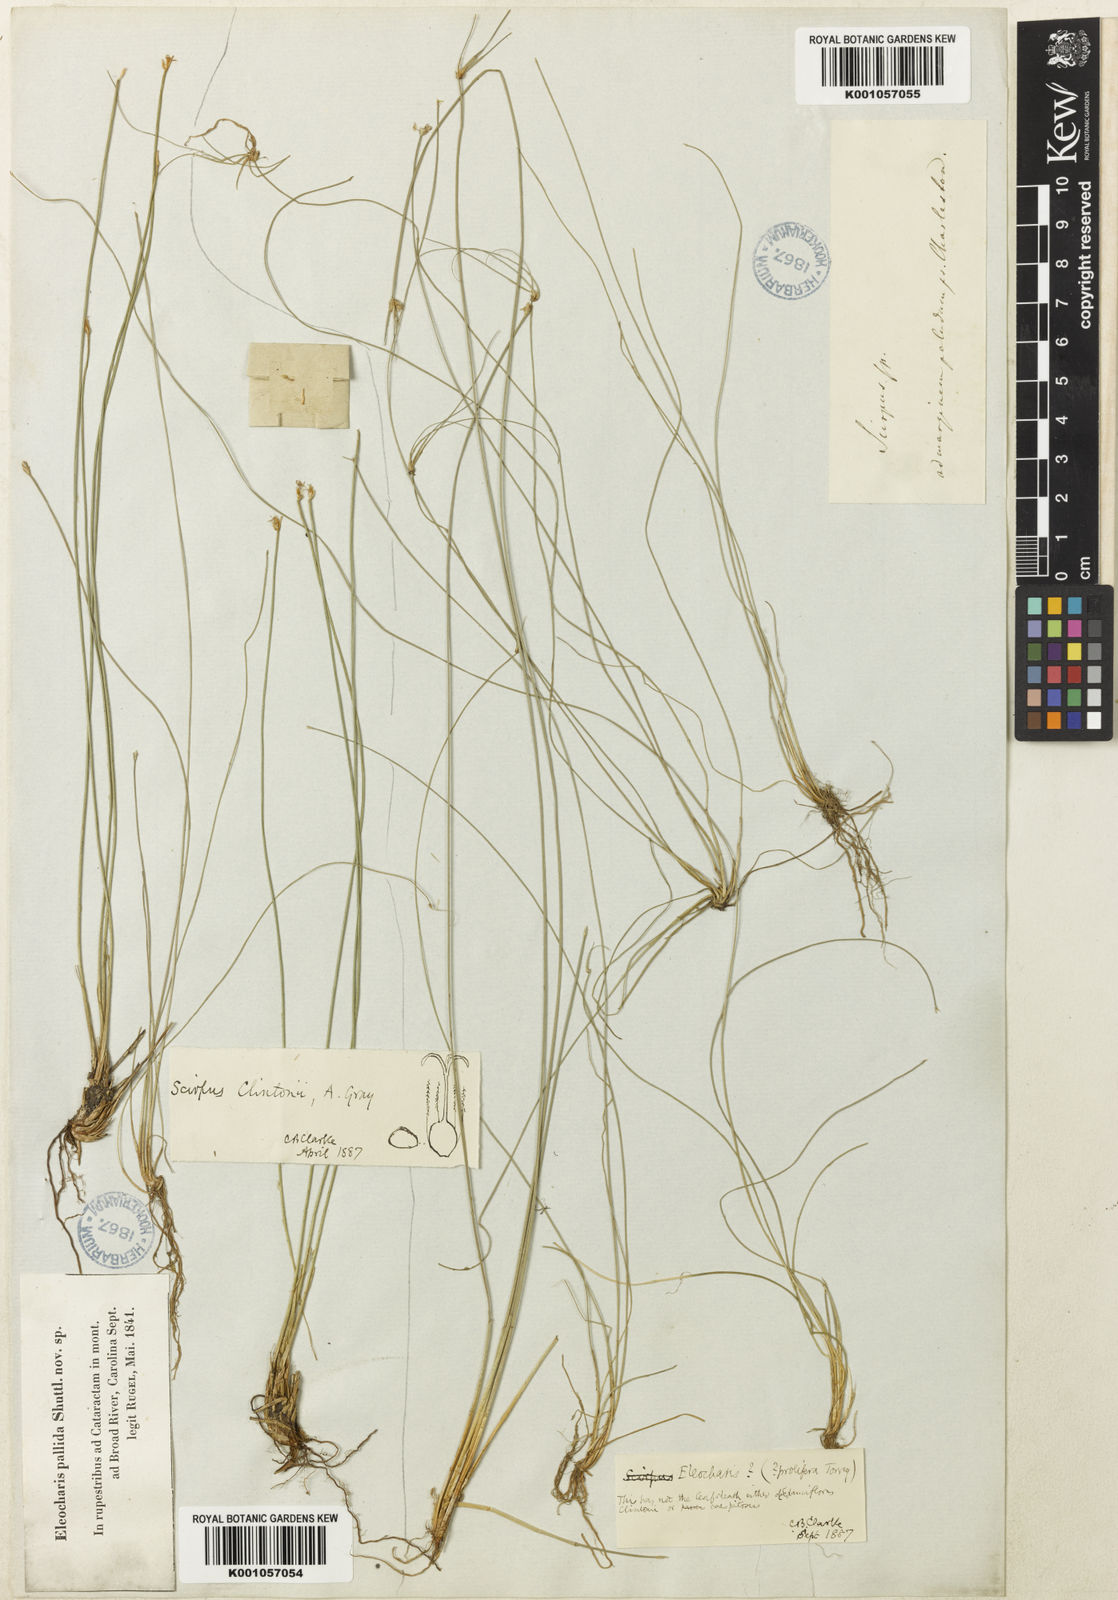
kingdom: Plantae
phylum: Tracheophyta
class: Liliopsida
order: Poales
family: Cyperaceae
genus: Trichophorum
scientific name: Trichophorum clintonii
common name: Clinton's bulrush
